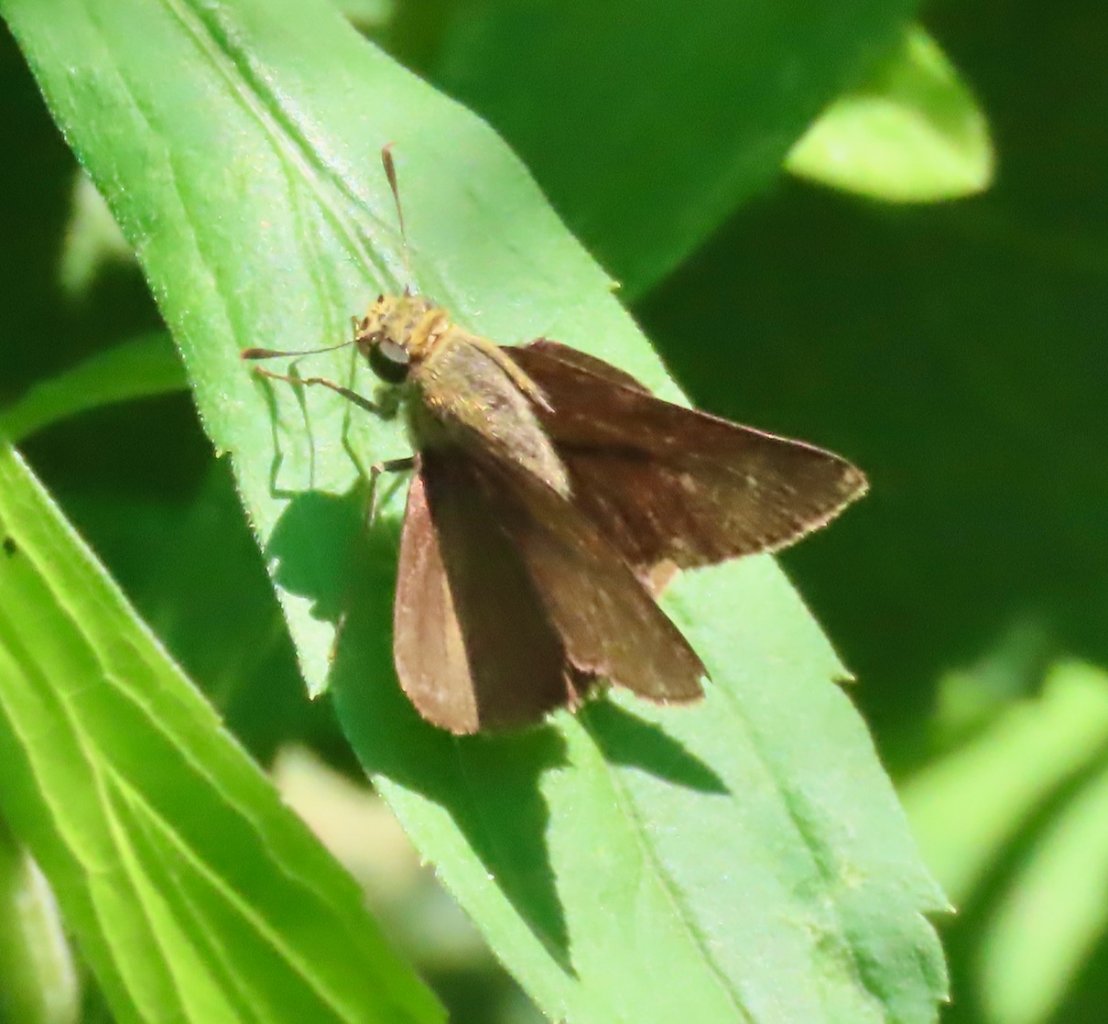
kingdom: Animalia
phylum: Arthropoda
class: Insecta
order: Lepidoptera
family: Hesperiidae
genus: Euphyes
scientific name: Euphyes vestris
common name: Dun Skipper
